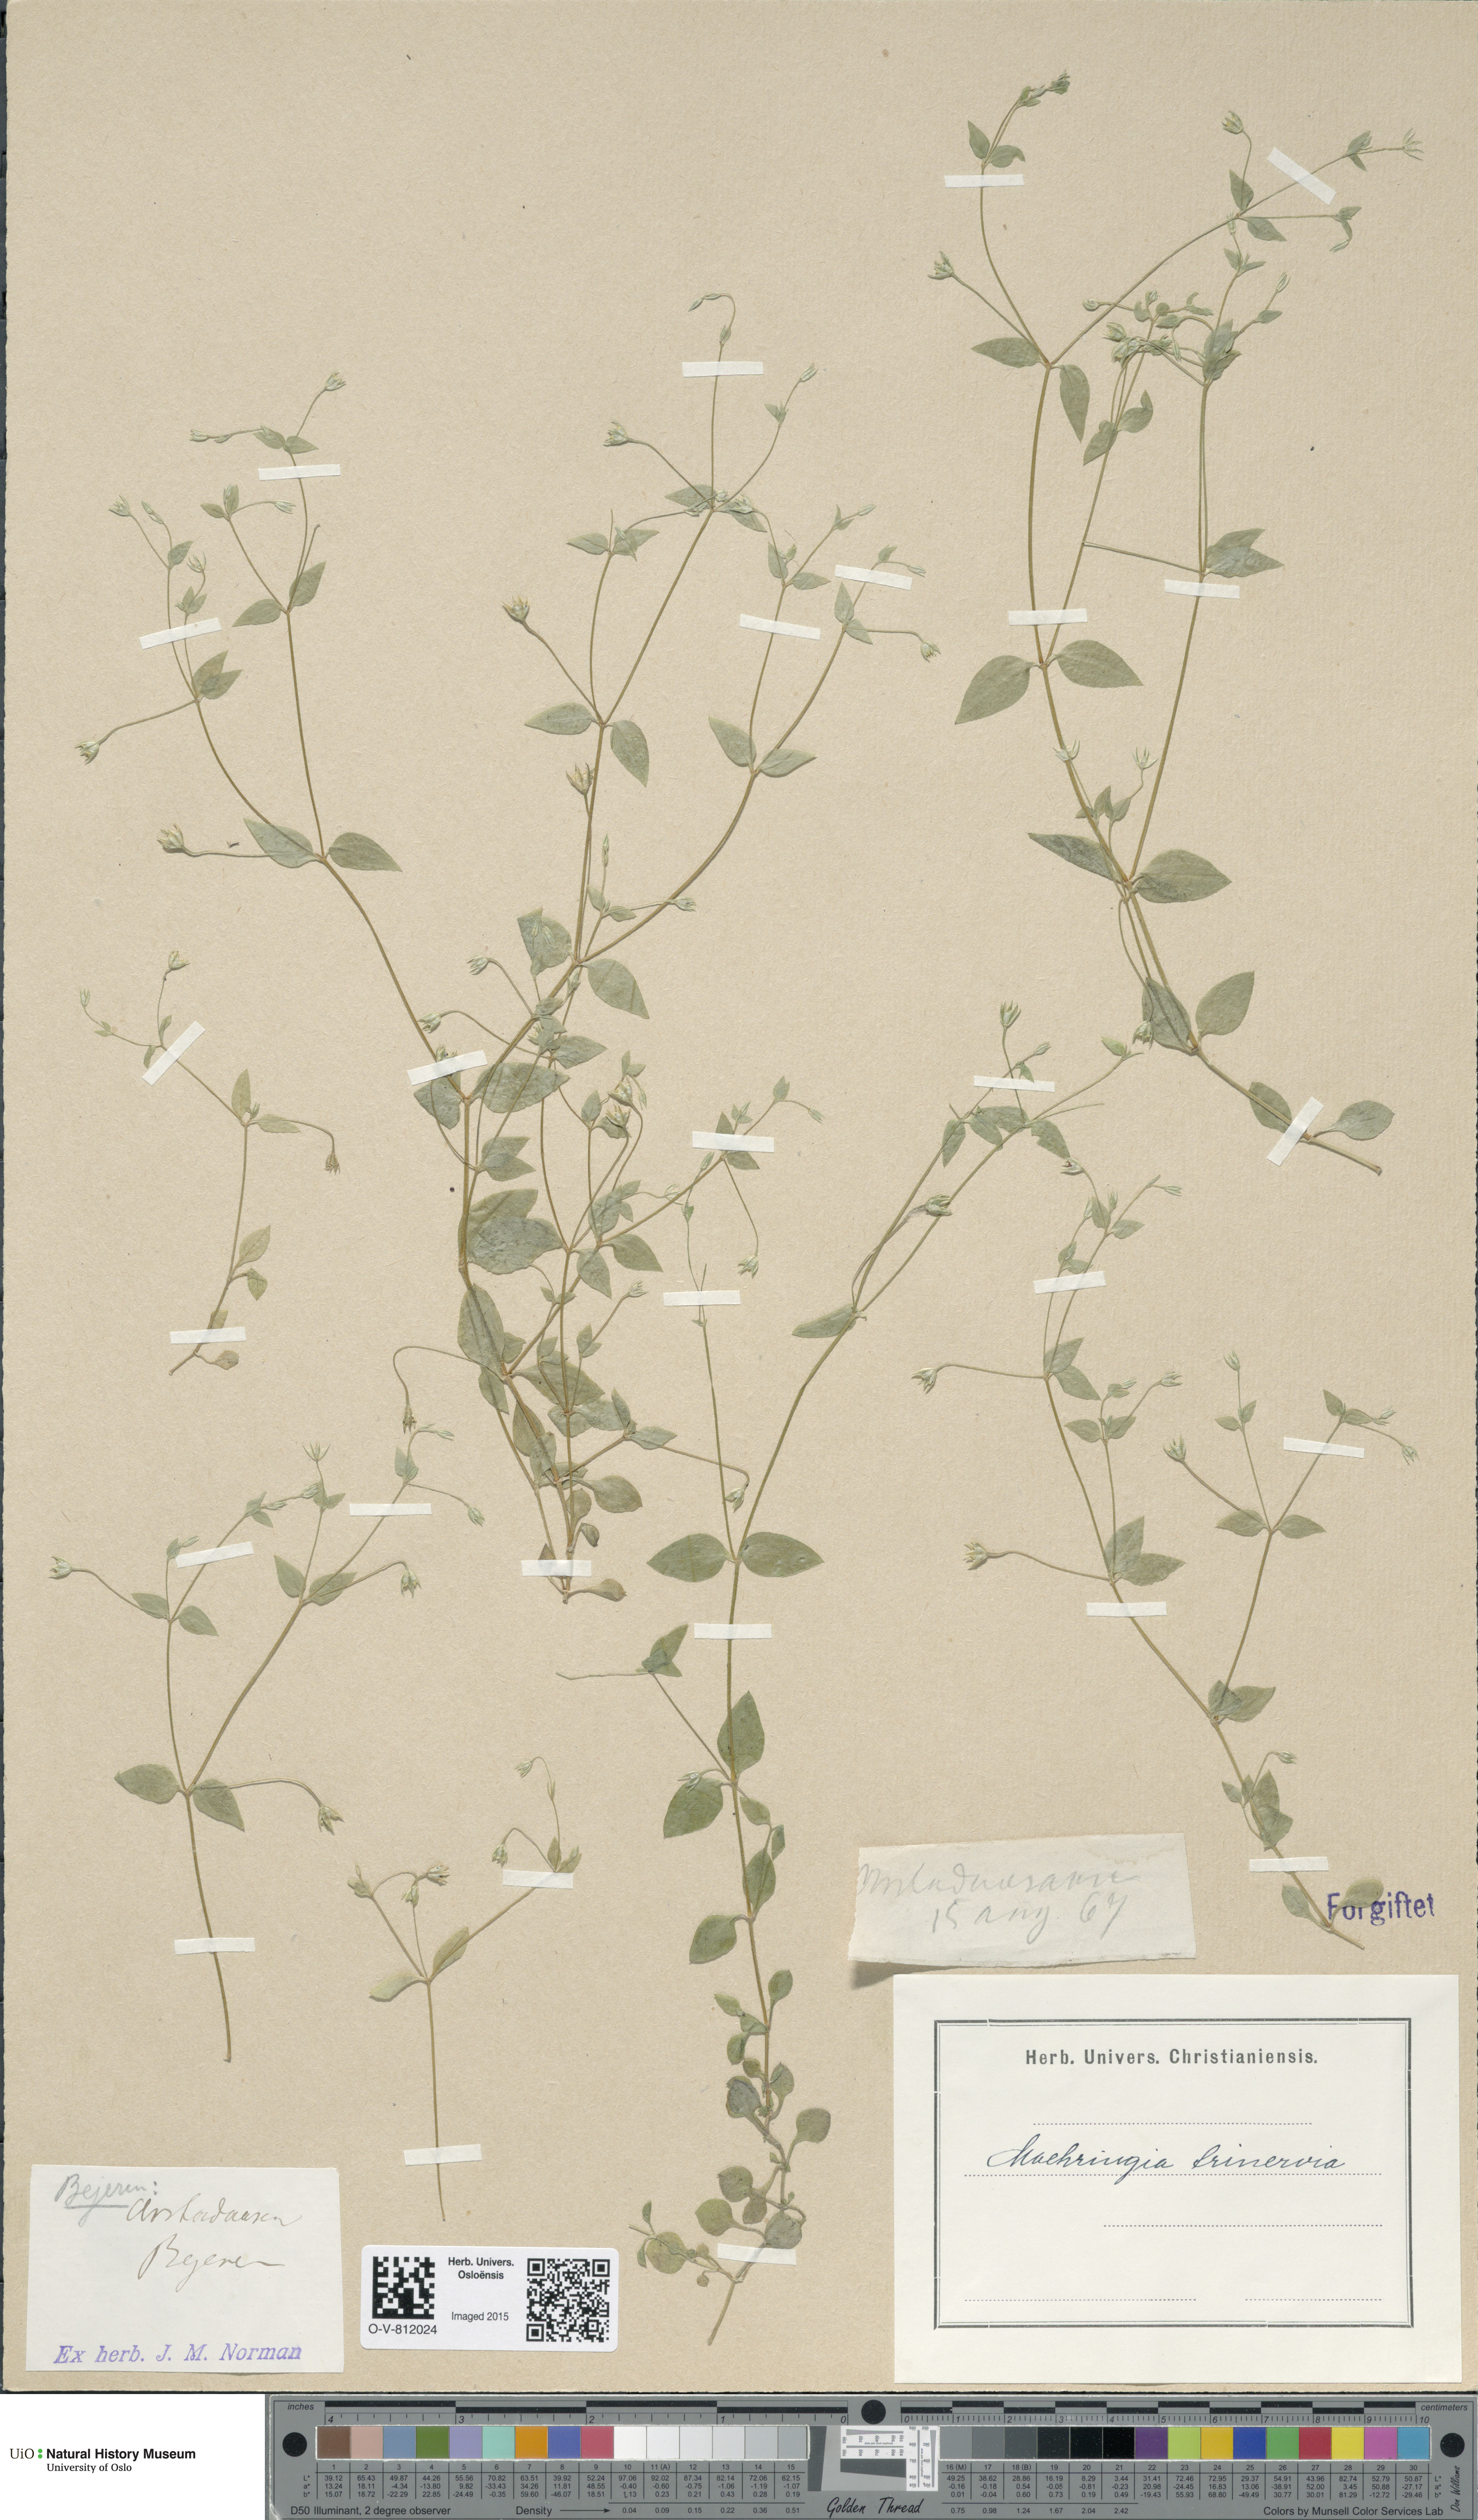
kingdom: Plantae
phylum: Tracheophyta
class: Magnoliopsida
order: Caryophyllales
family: Caryophyllaceae
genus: Moehringia
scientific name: Moehringia trinervia
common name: Three-nerved sandwort
